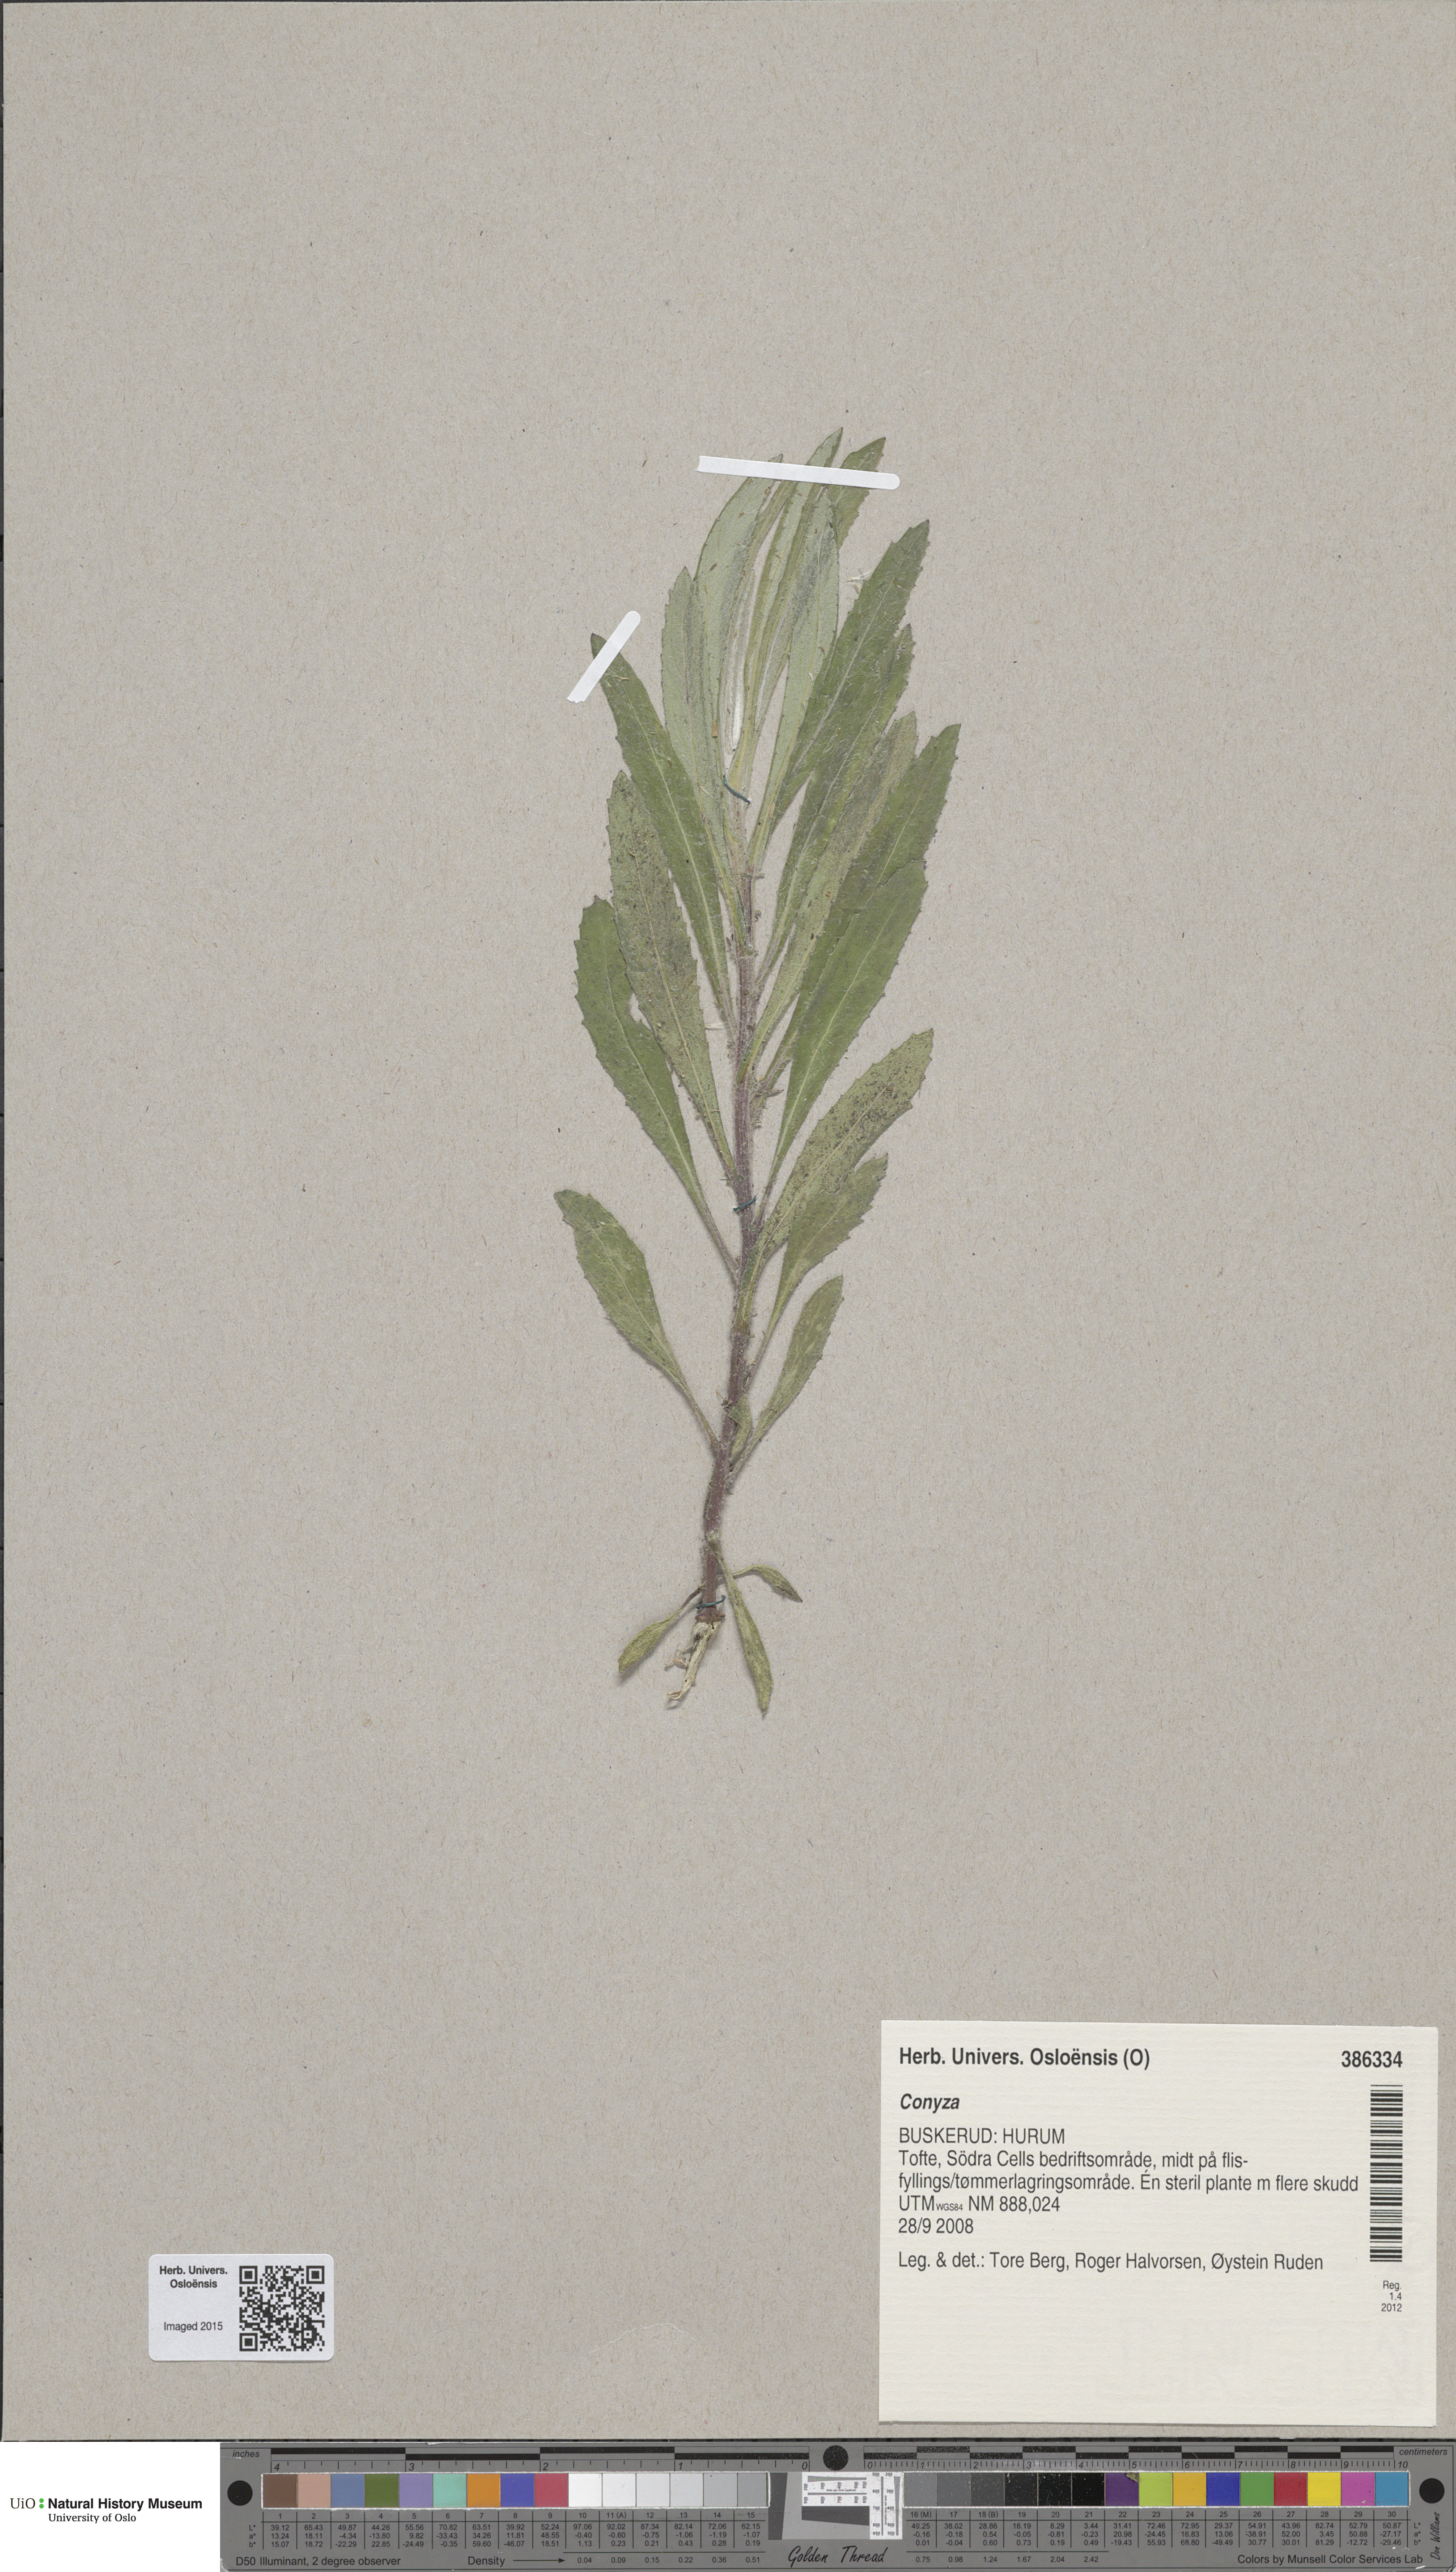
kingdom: Plantae
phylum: Tracheophyta
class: Magnoliopsida
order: Asterales
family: Asteraceae
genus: Conyza
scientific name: Conyza
